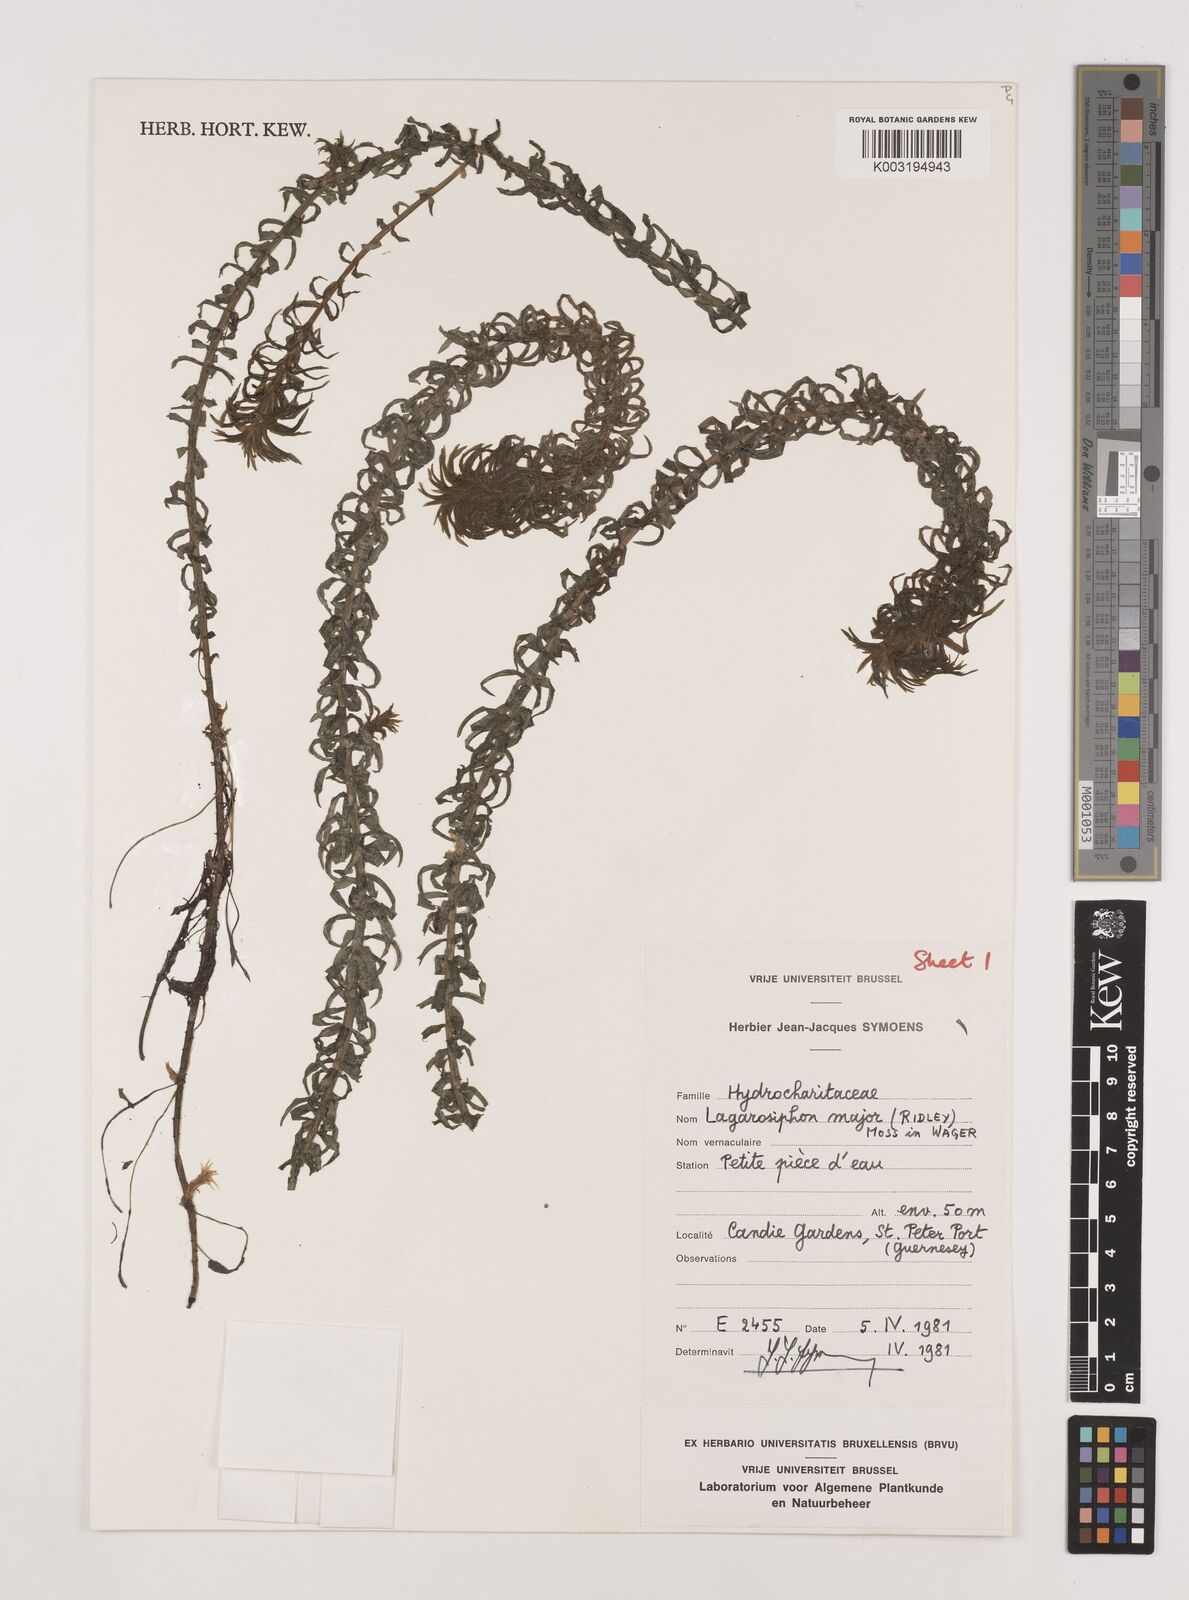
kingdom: Plantae
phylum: Tracheophyta
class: Liliopsida
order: Alismatales
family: Hydrocharitaceae
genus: Lagarosiphon
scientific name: Lagarosiphon major
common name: Curly waterweed
